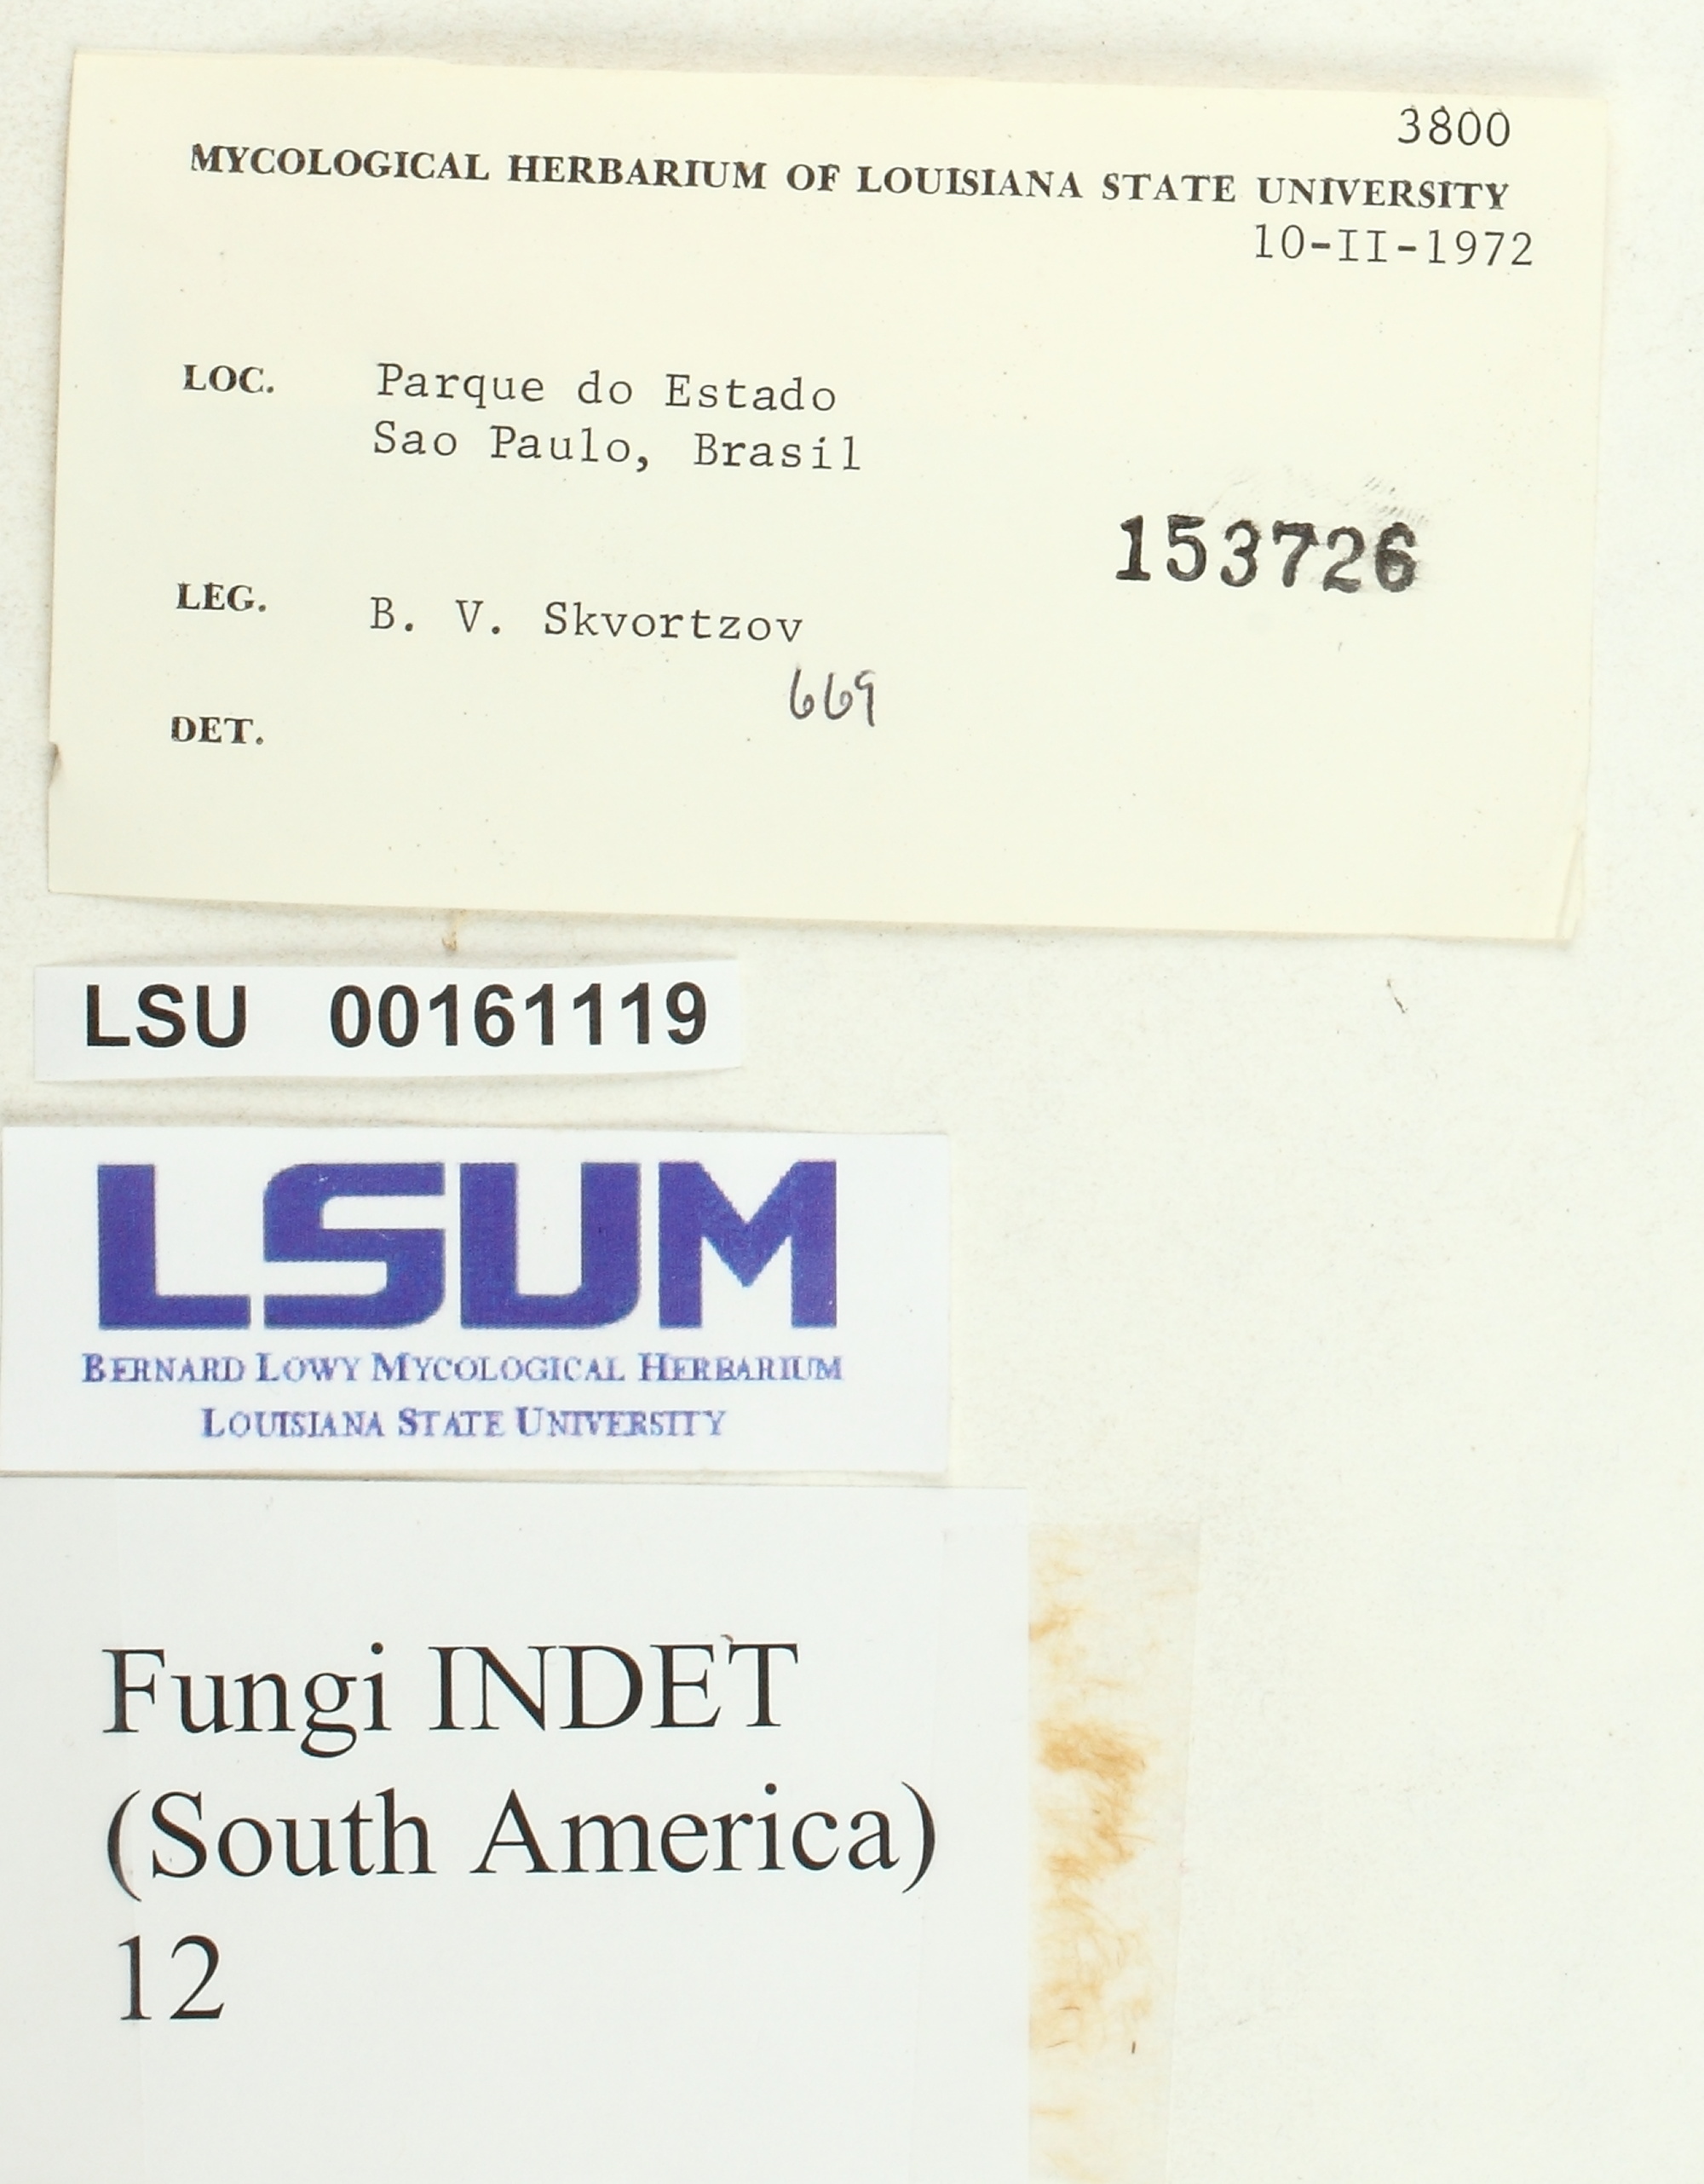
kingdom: Fungi
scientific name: Fungi
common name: Fungi
